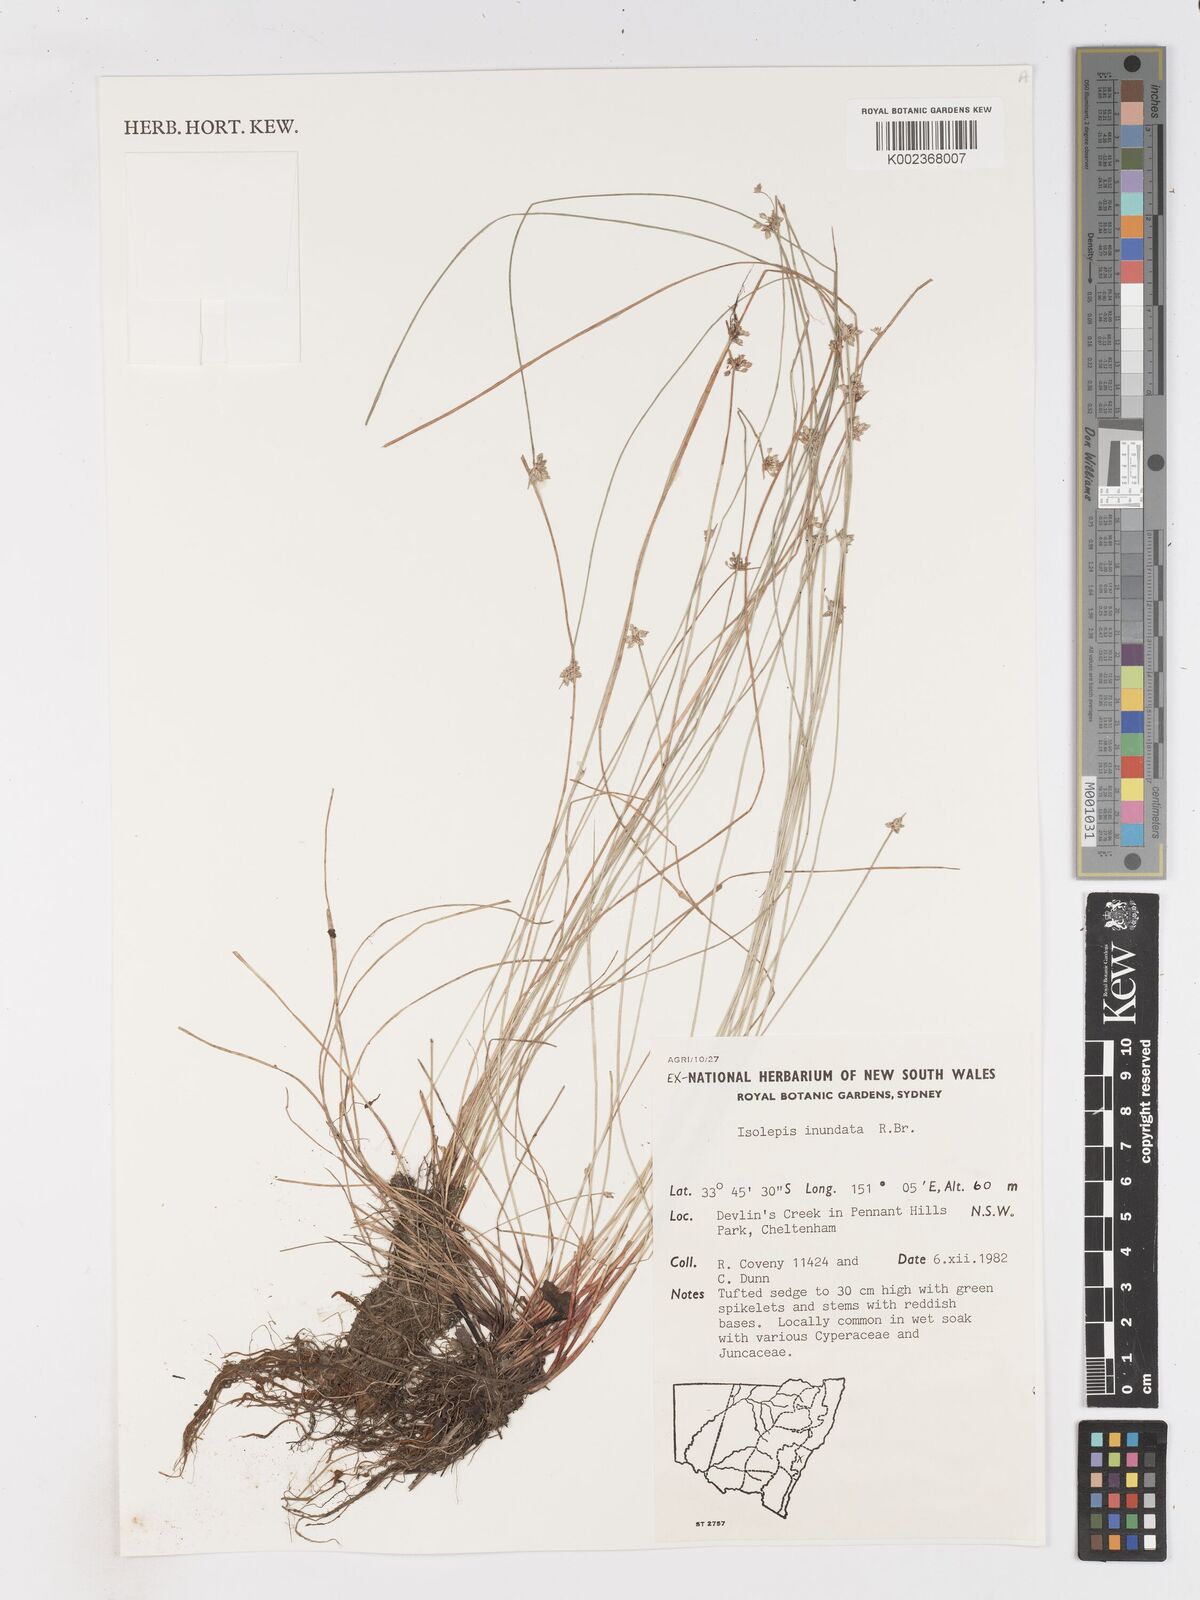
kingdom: Plantae
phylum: Tracheophyta
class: Liliopsida
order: Poales
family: Cyperaceae
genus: Isolepis
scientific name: Isolepis inundata
